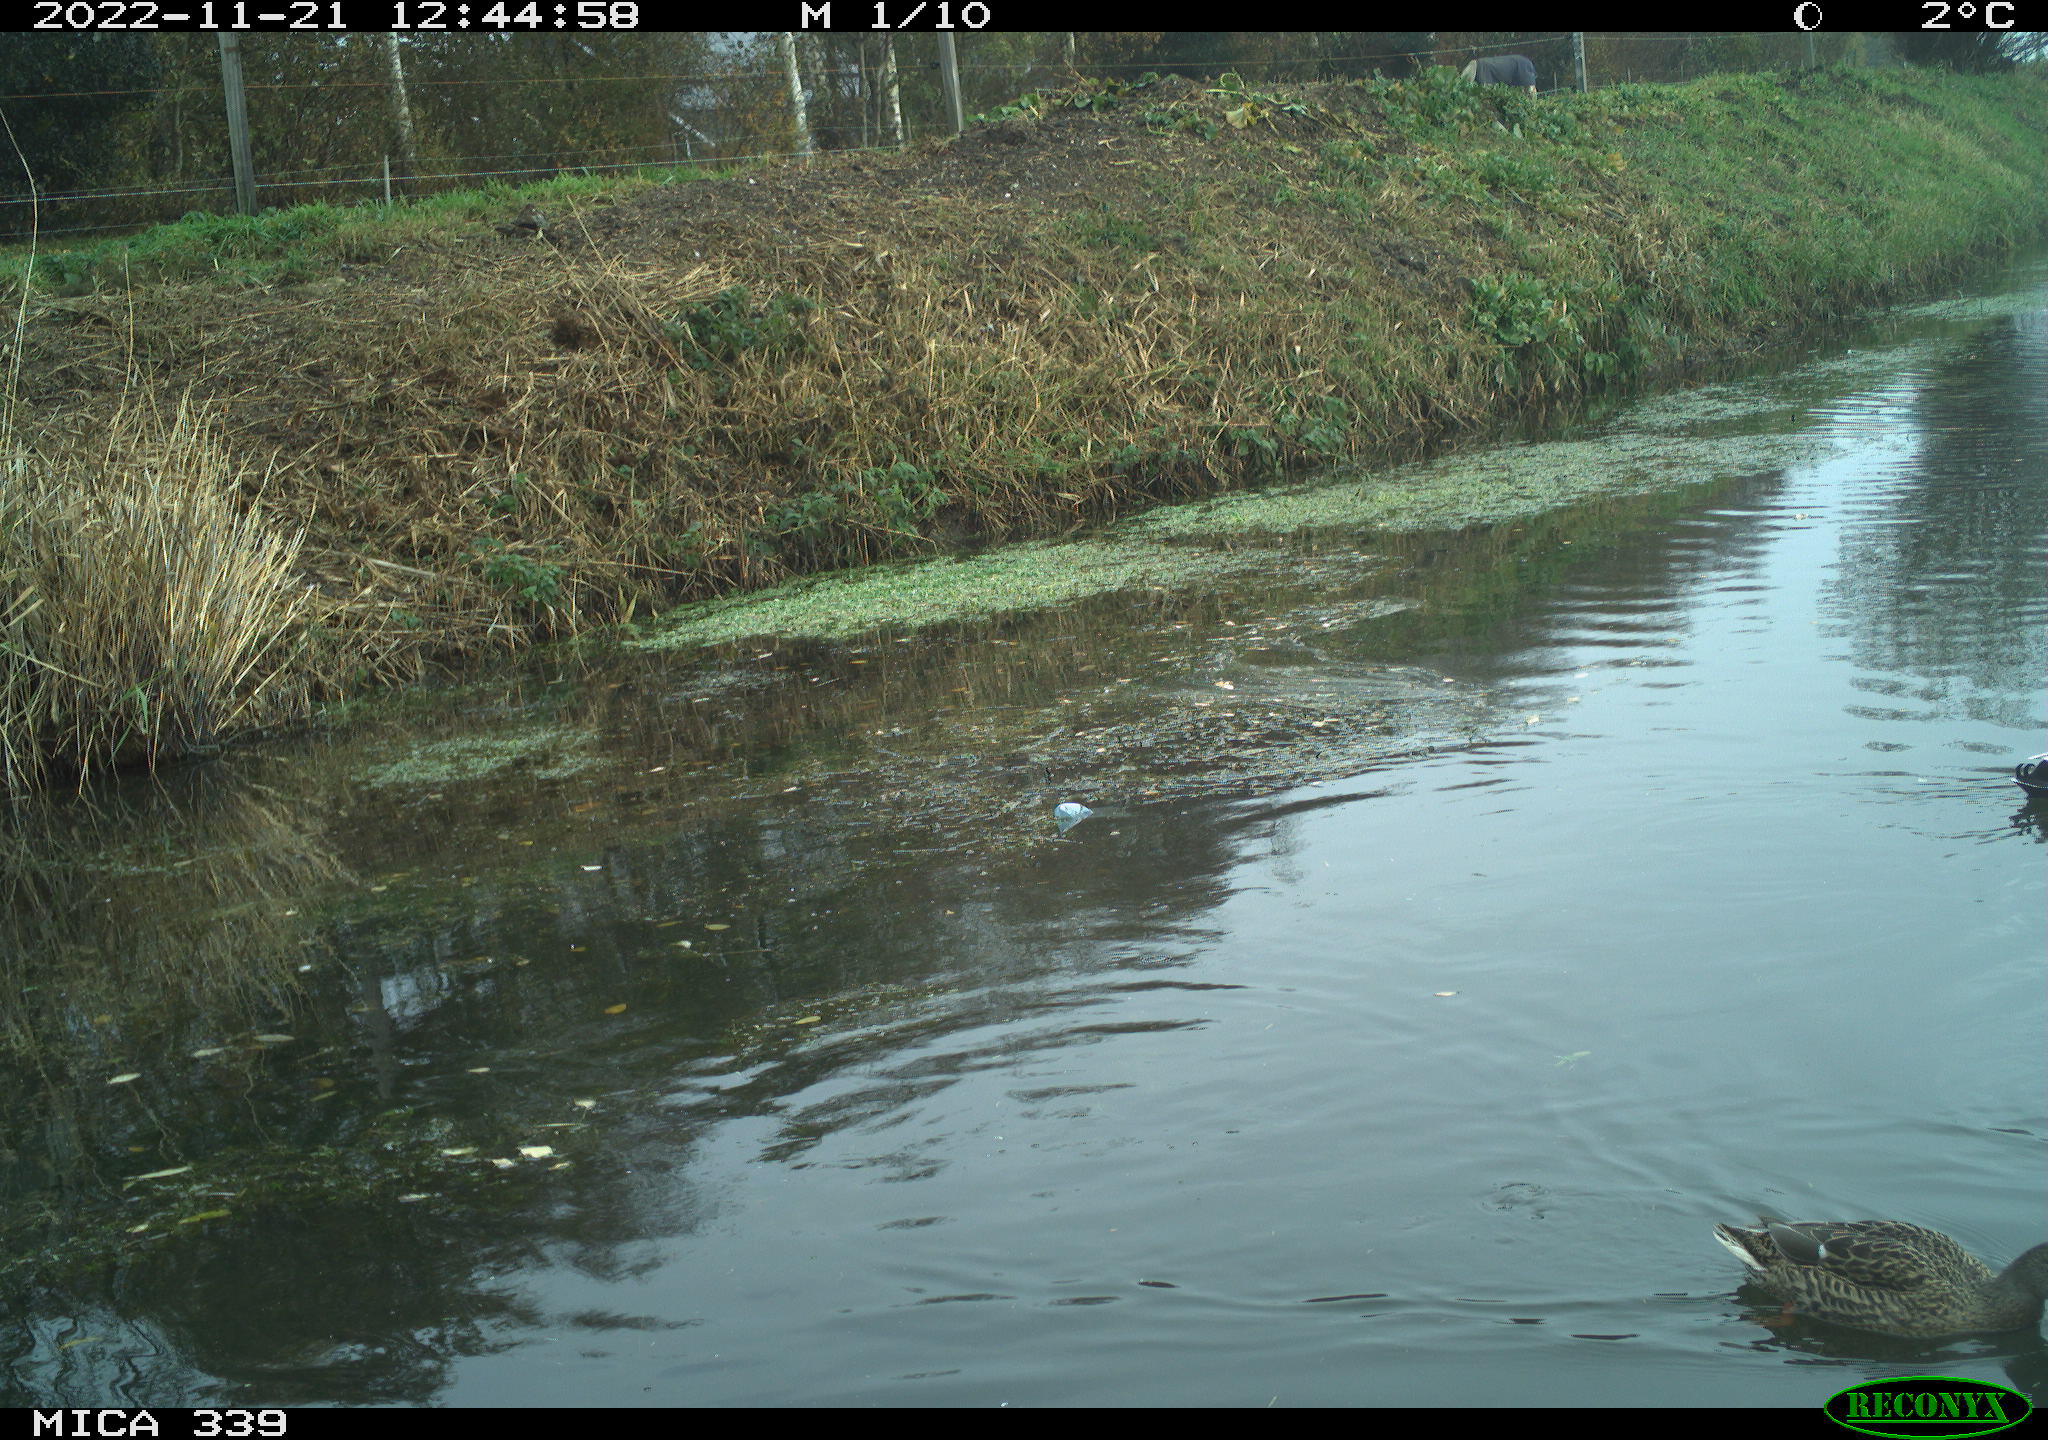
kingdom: Animalia
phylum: Chordata
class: Aves
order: Anseriformes
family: Anatidae
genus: Anas
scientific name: Anas platyrhynchos
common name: Mallard
